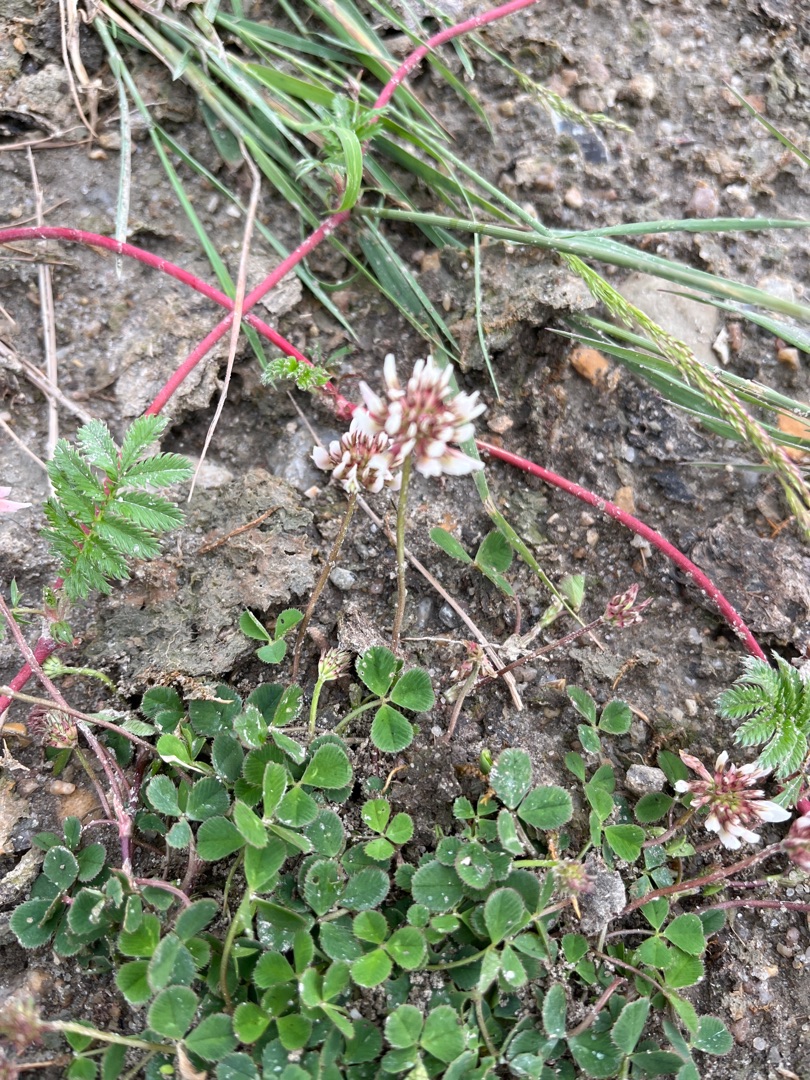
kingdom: Plantae
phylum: Tracheophyta
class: Magnoliopsida
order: Fabales
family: Fabaceae
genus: Trifolium
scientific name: Trifolium repens
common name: Hvid-kløver
